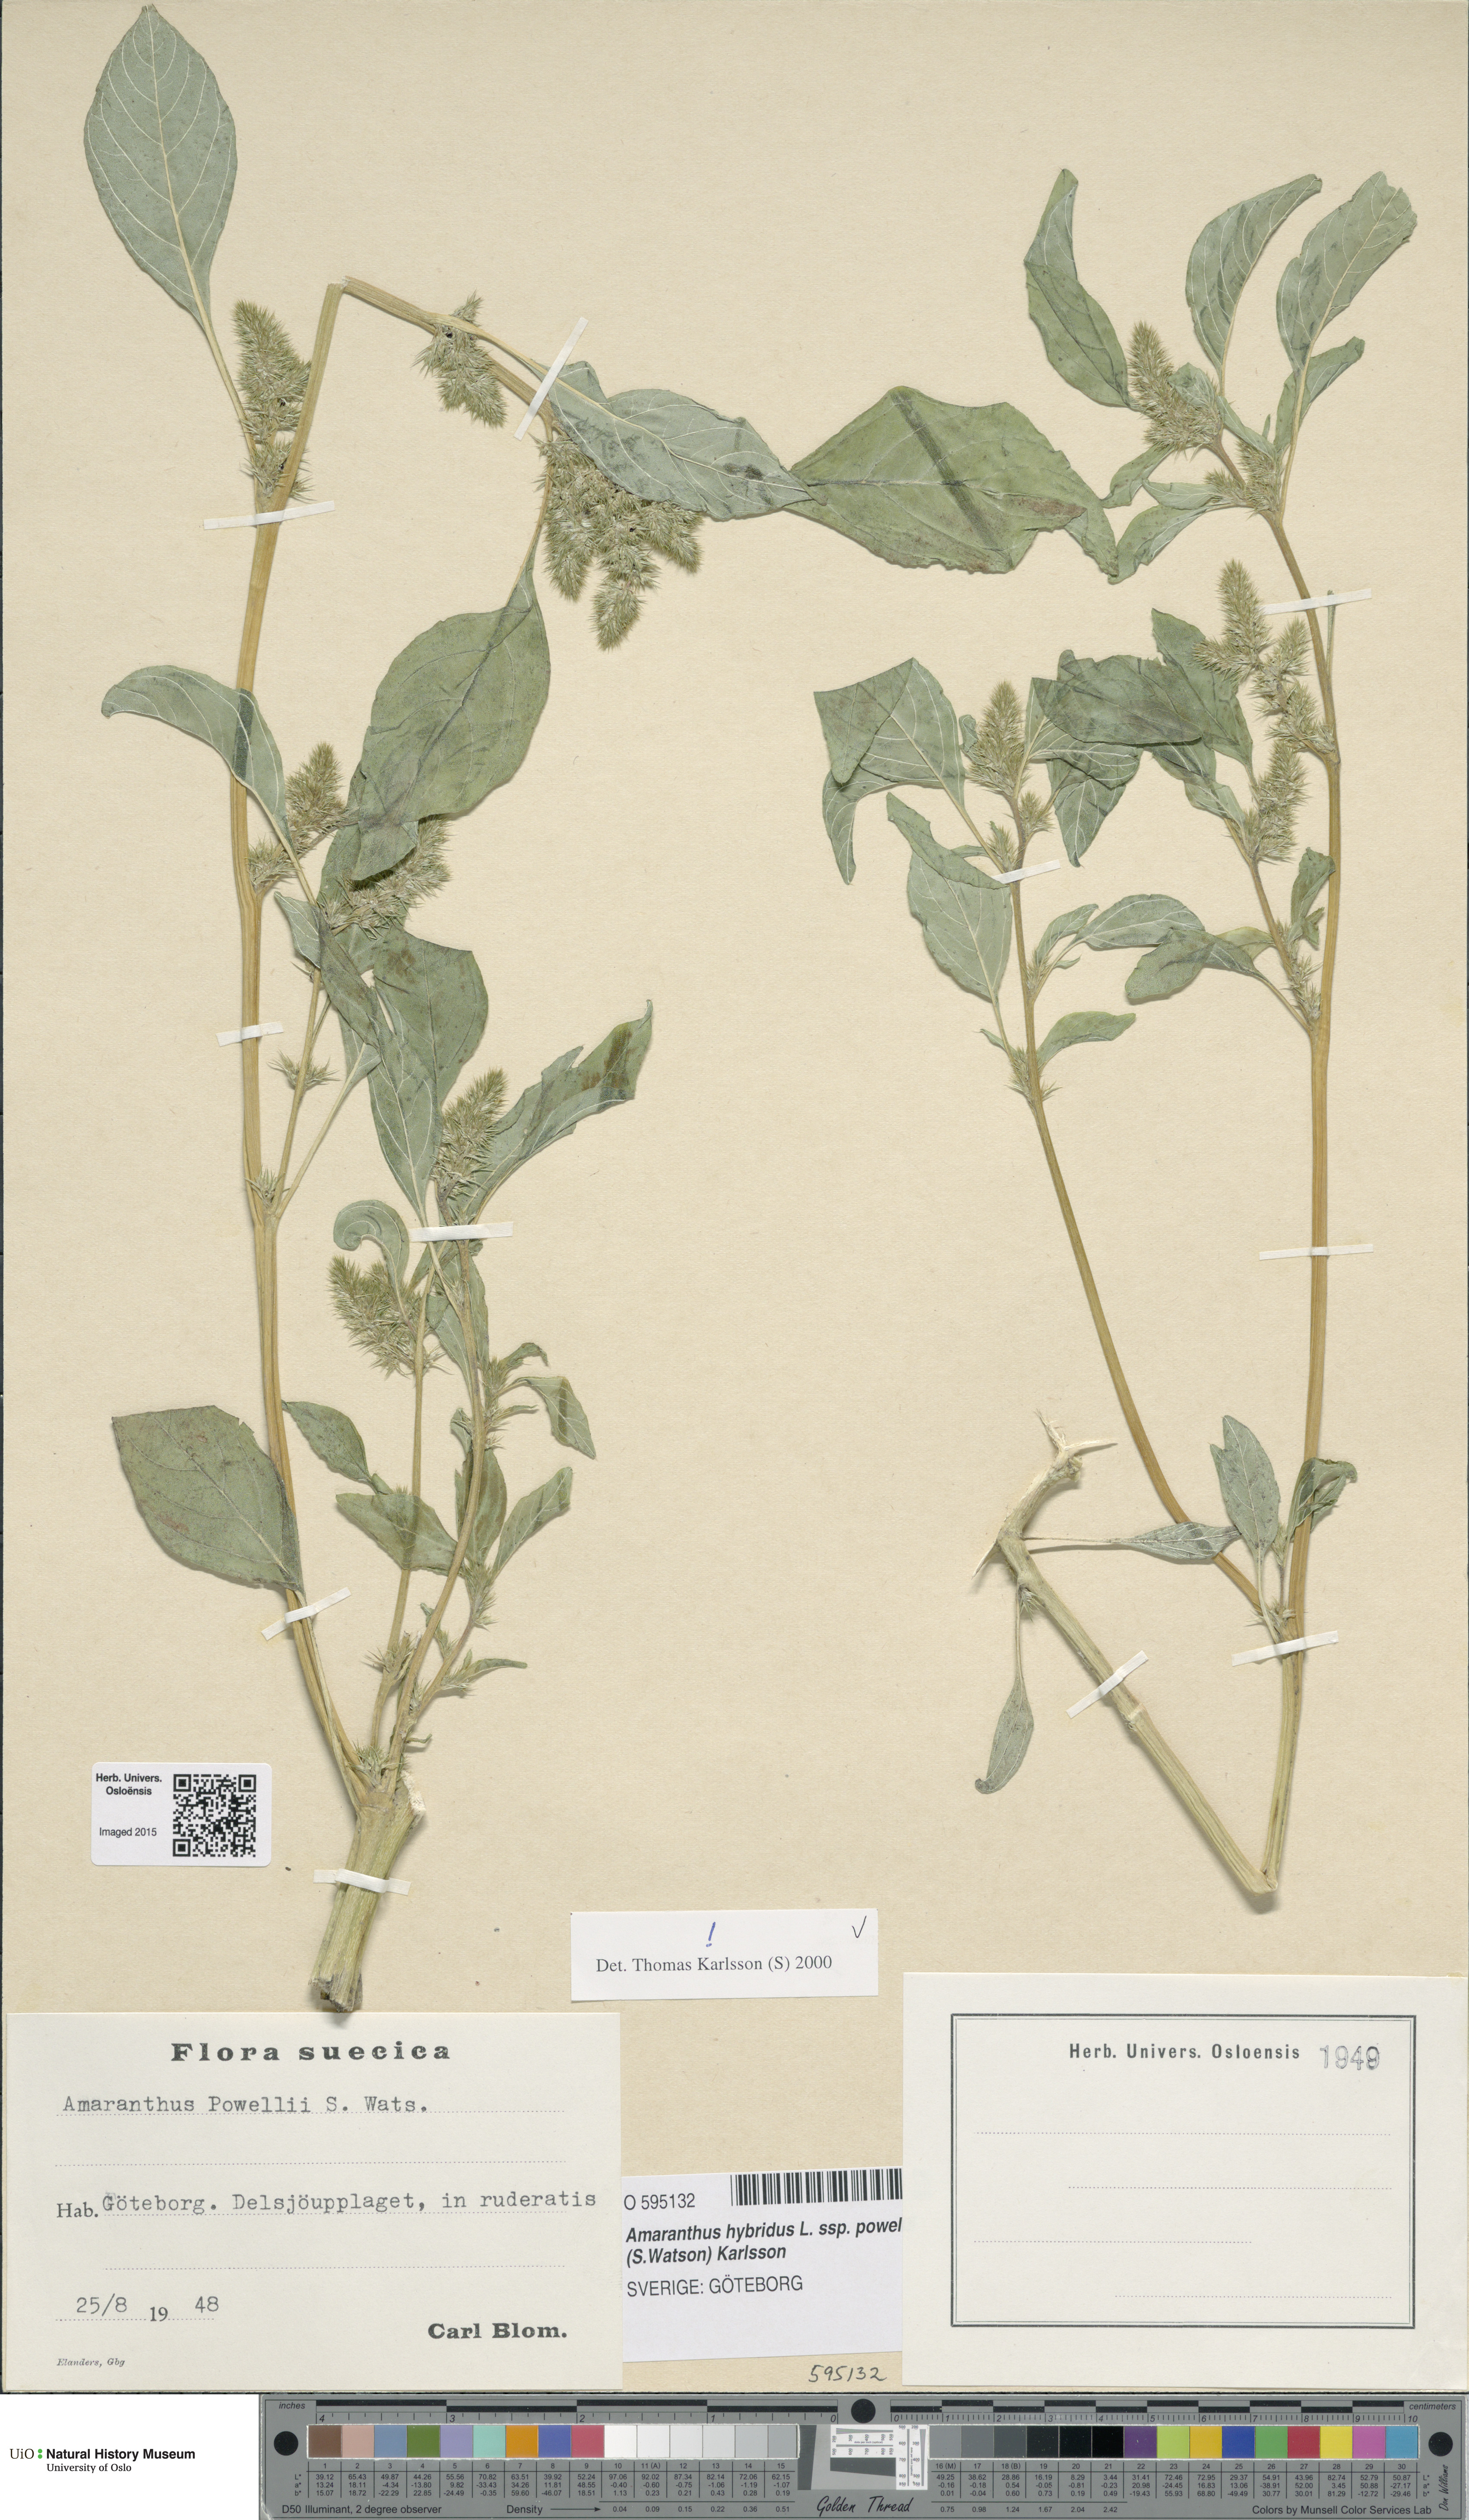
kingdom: Plantae
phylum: Tracheophyta
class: Magnoliopsida
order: Caryophyllales
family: Amaranthaceae
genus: Amaranthus
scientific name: Amaranthus powellii
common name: Powell's amaranth
